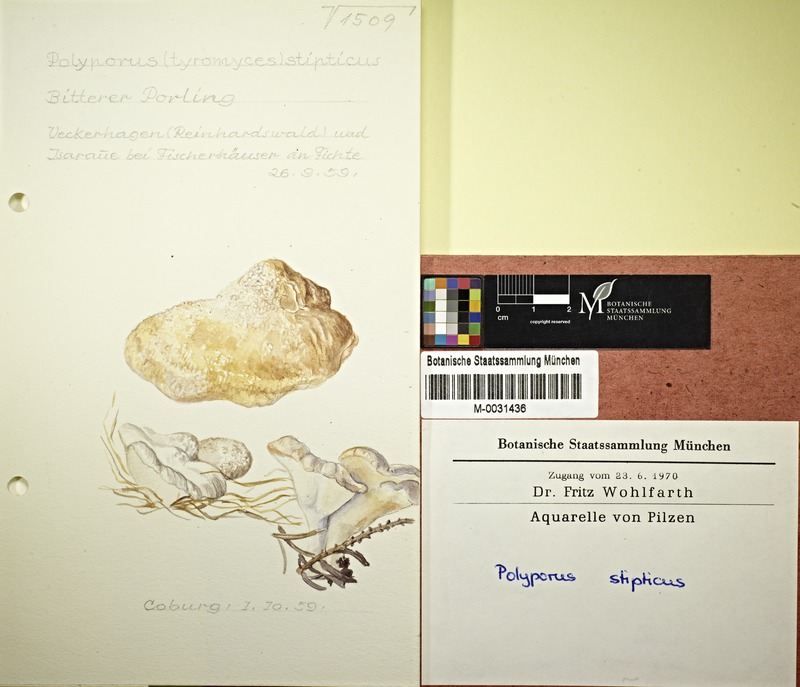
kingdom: Fungi
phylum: Basidiomycota
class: Agaricomycetes
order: Polyporales
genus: Amaropostia
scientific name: Amaropostia stiptica
